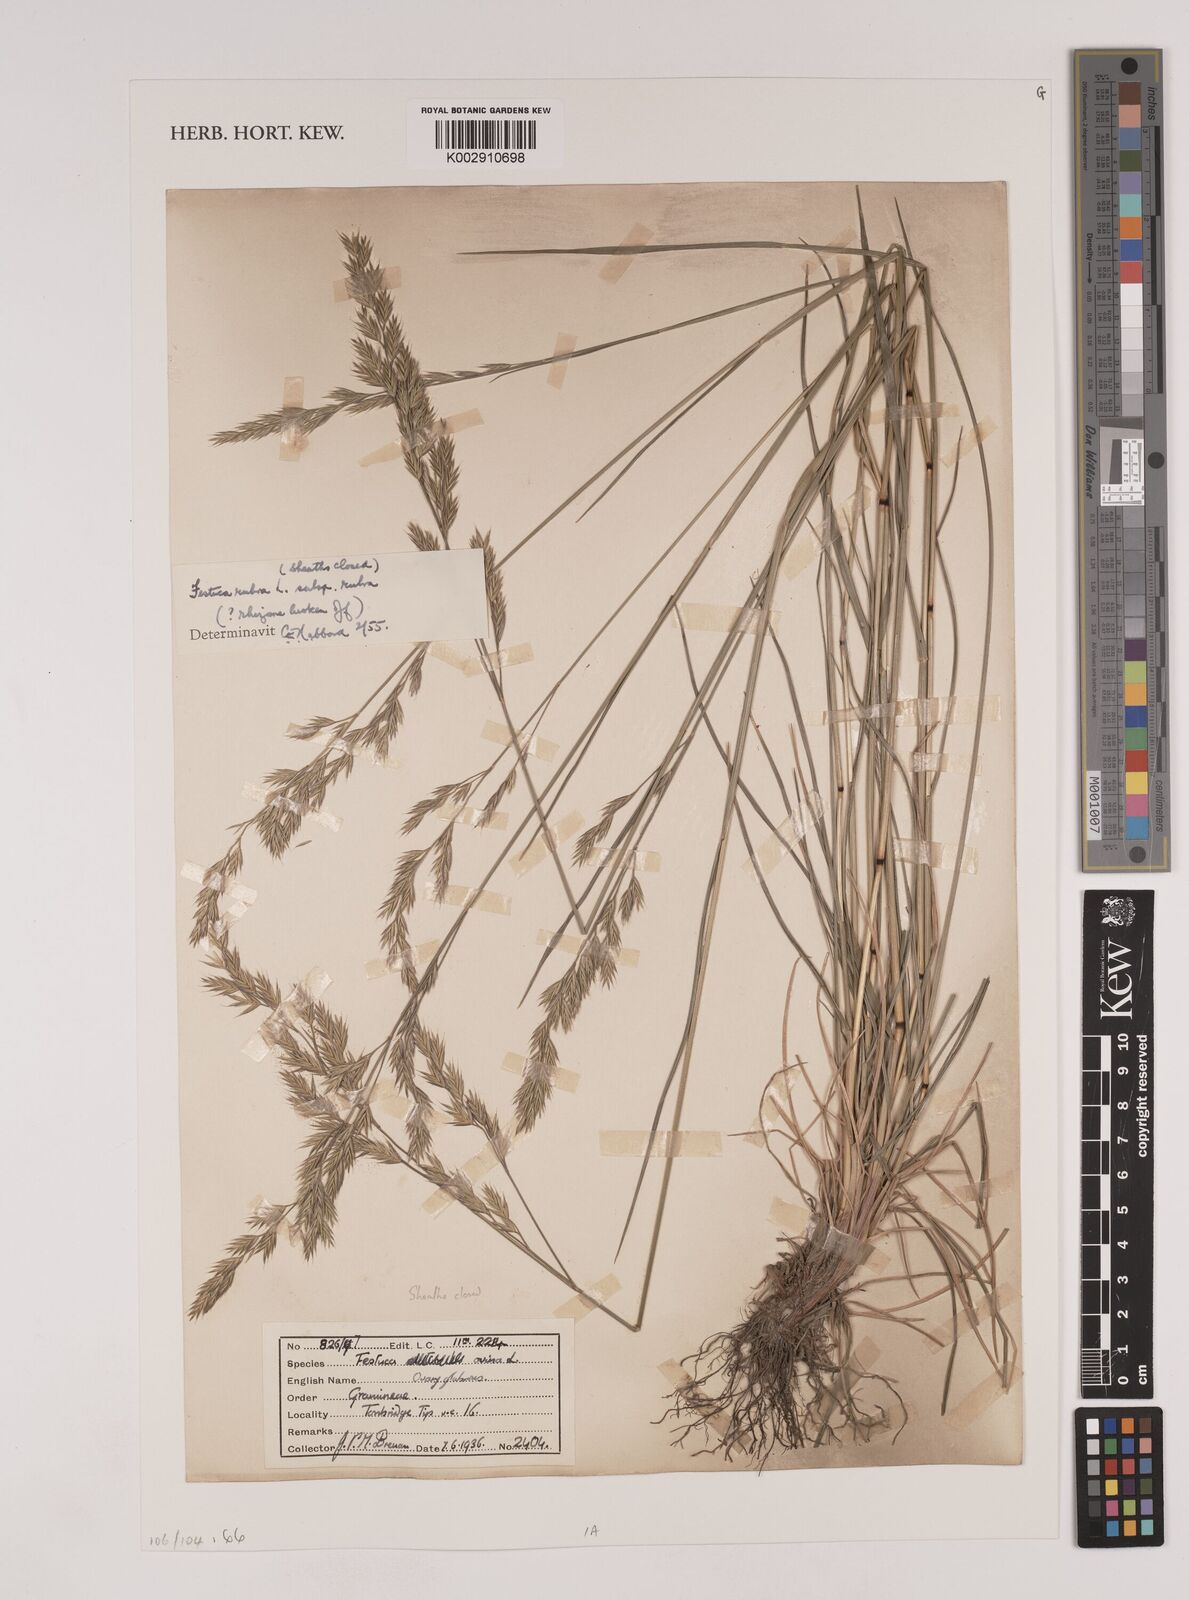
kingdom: Plantae
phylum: Tracheophyta
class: Liliopsida
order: Poales
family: Poaceae
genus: Festuca
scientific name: Festuca rubra
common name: Red fescue
